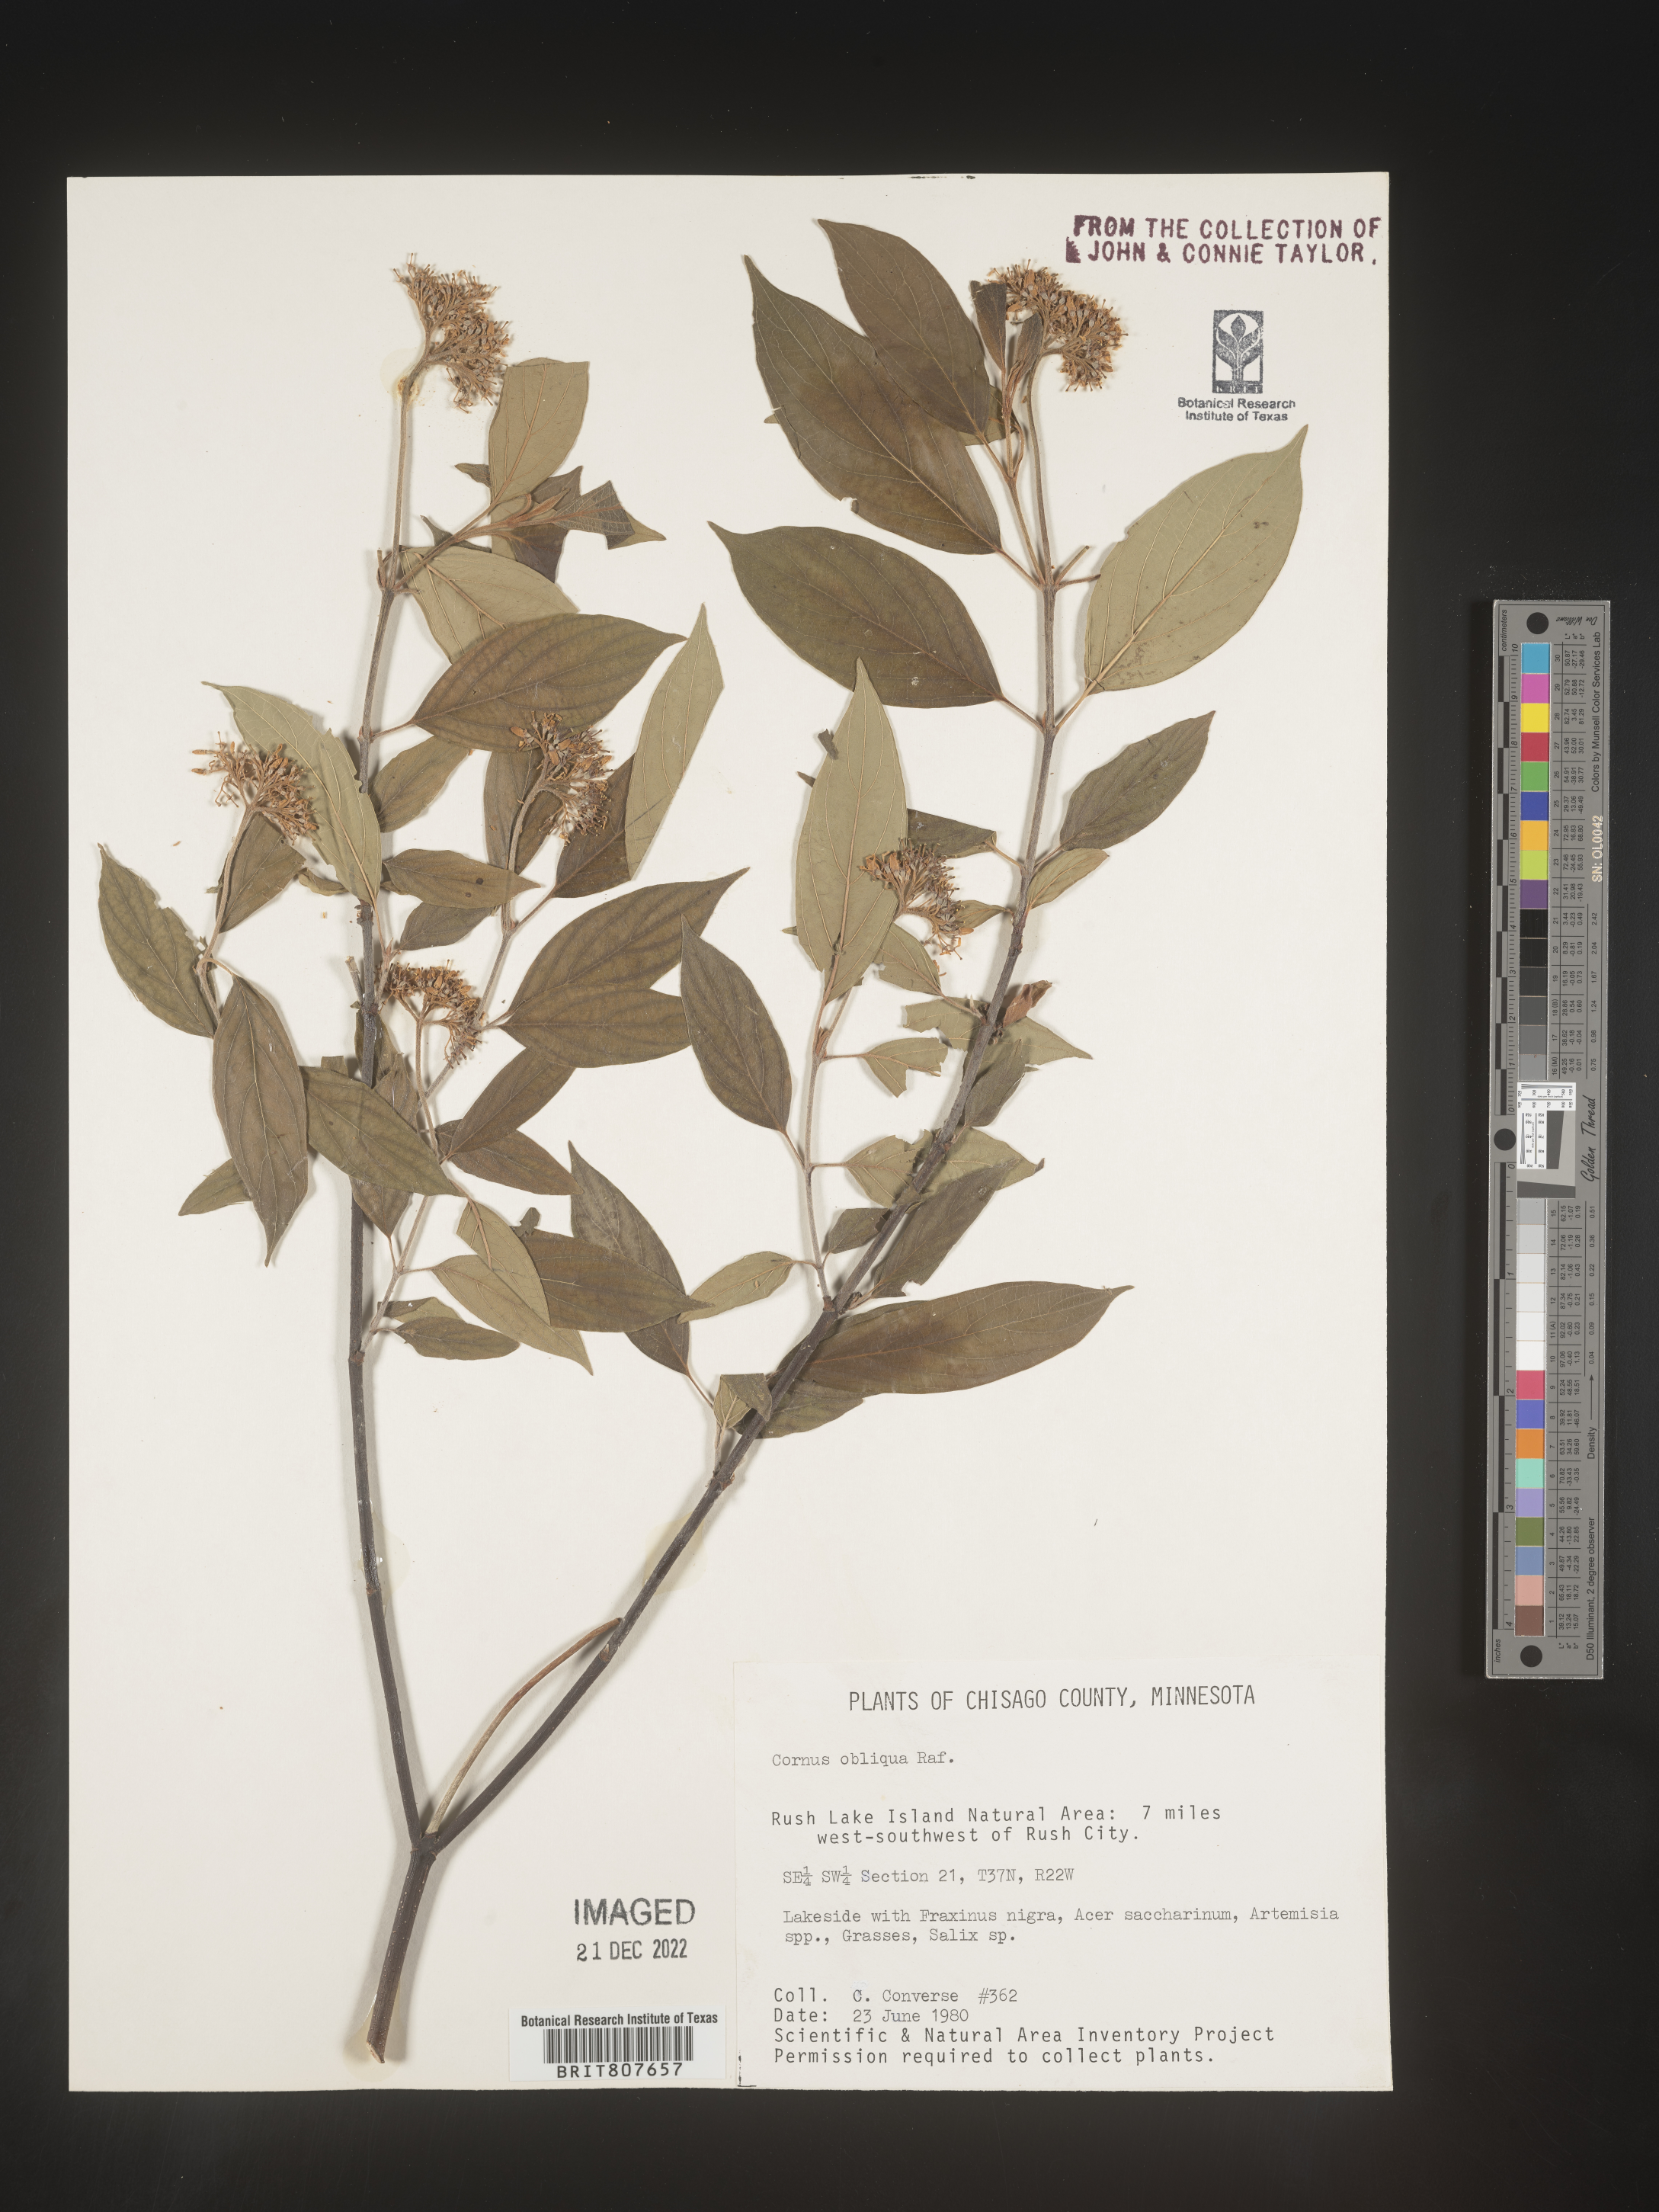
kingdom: Plantae
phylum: Tracheophyta
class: Magnoliopsida
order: Cornales
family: Cornaceae
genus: Cornus
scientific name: Cornus obliqua
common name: Pale dogwood
